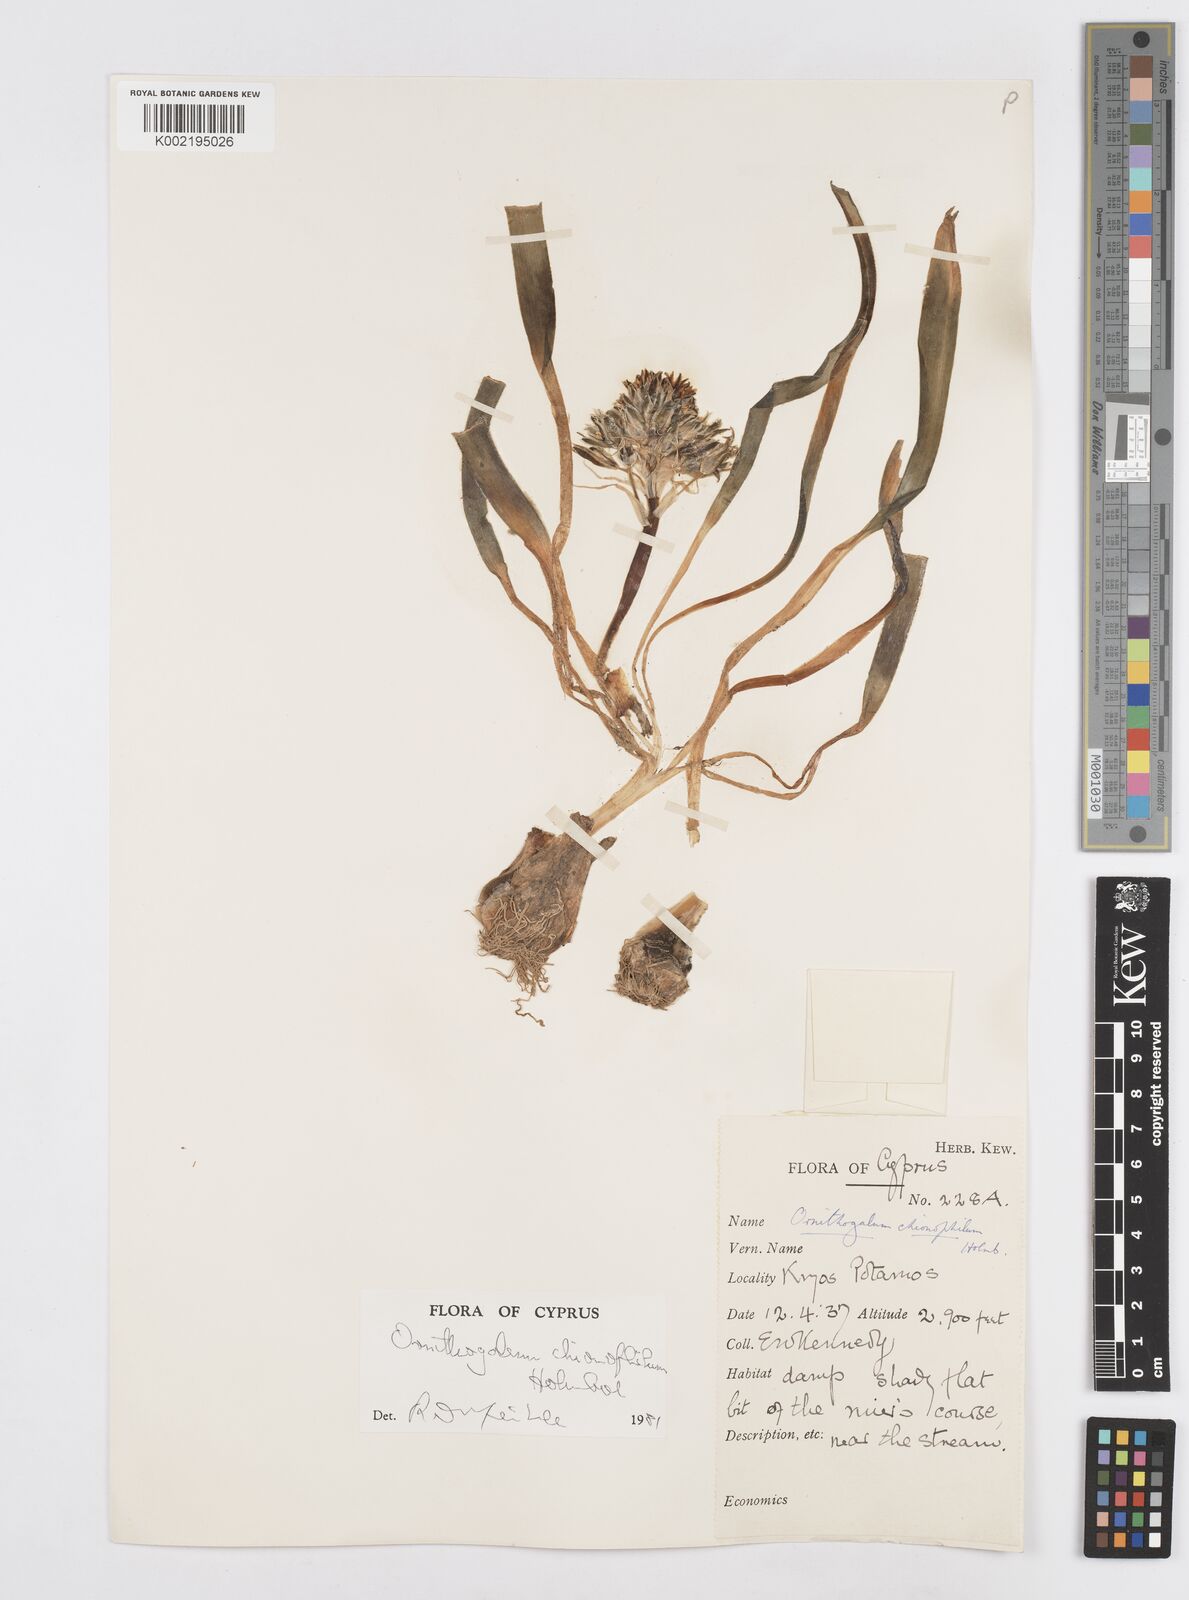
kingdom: Plantae
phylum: Tracheophyta
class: Liliopsida
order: Asparagales
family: Asparagaceae
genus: Ornithogalum
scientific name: Ornithogalum chionophilum
